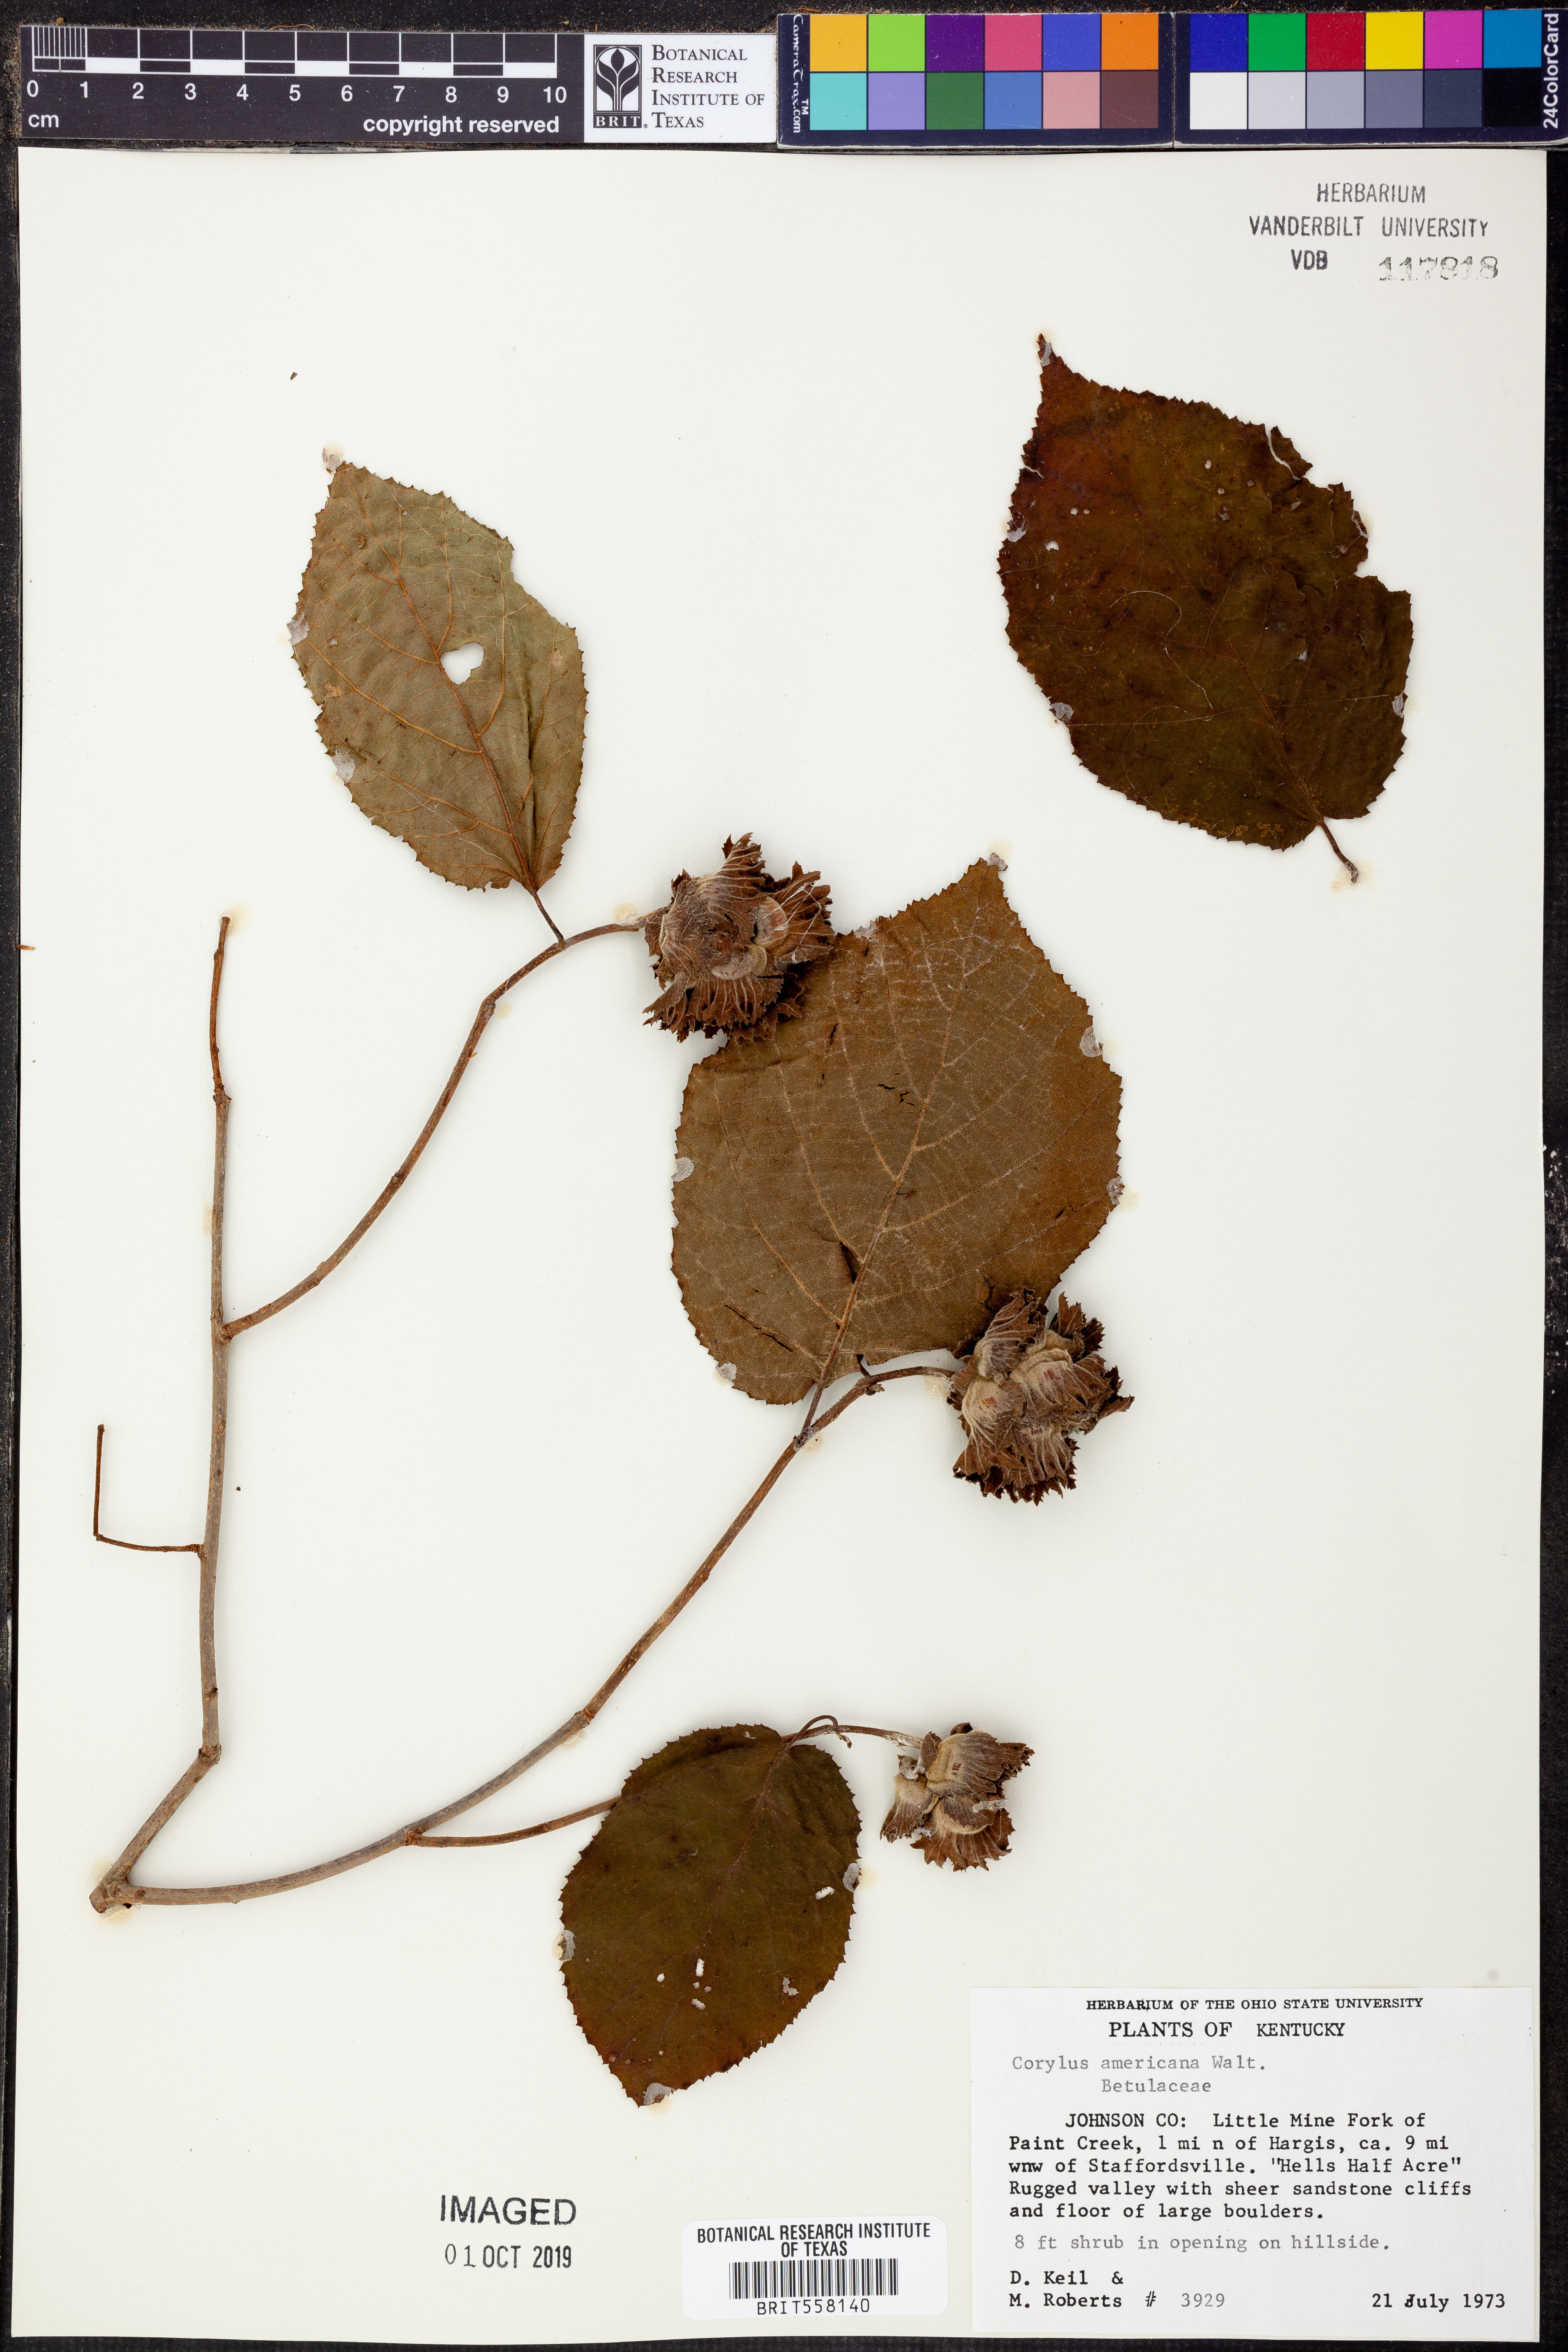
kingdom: Plantae
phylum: Tracheophyta
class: Magnoliopsida
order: Fagales
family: Betulaceae
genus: Corylus
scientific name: Corylus americana
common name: American hazel
